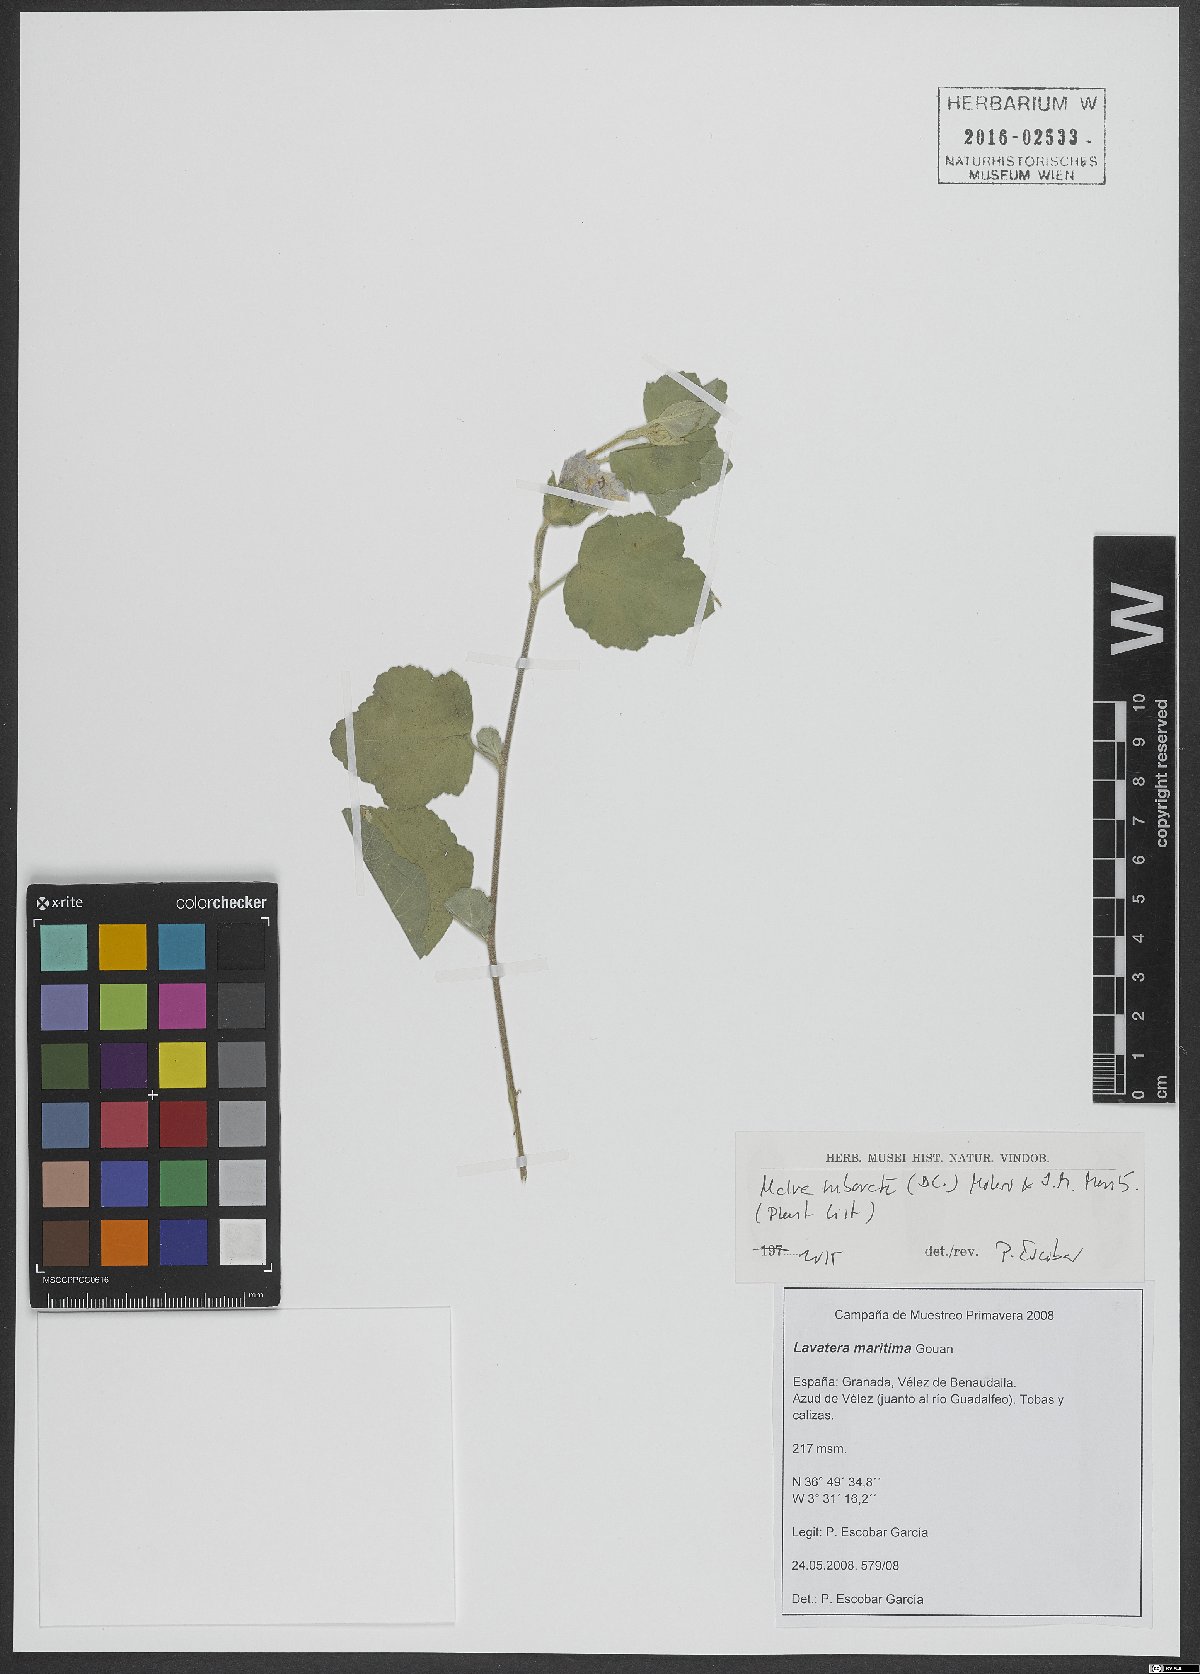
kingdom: Plantae
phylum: Tracheophyta
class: Magnoliopsida
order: Malvales
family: Malvaceae
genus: Malva
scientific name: Malva subovata
